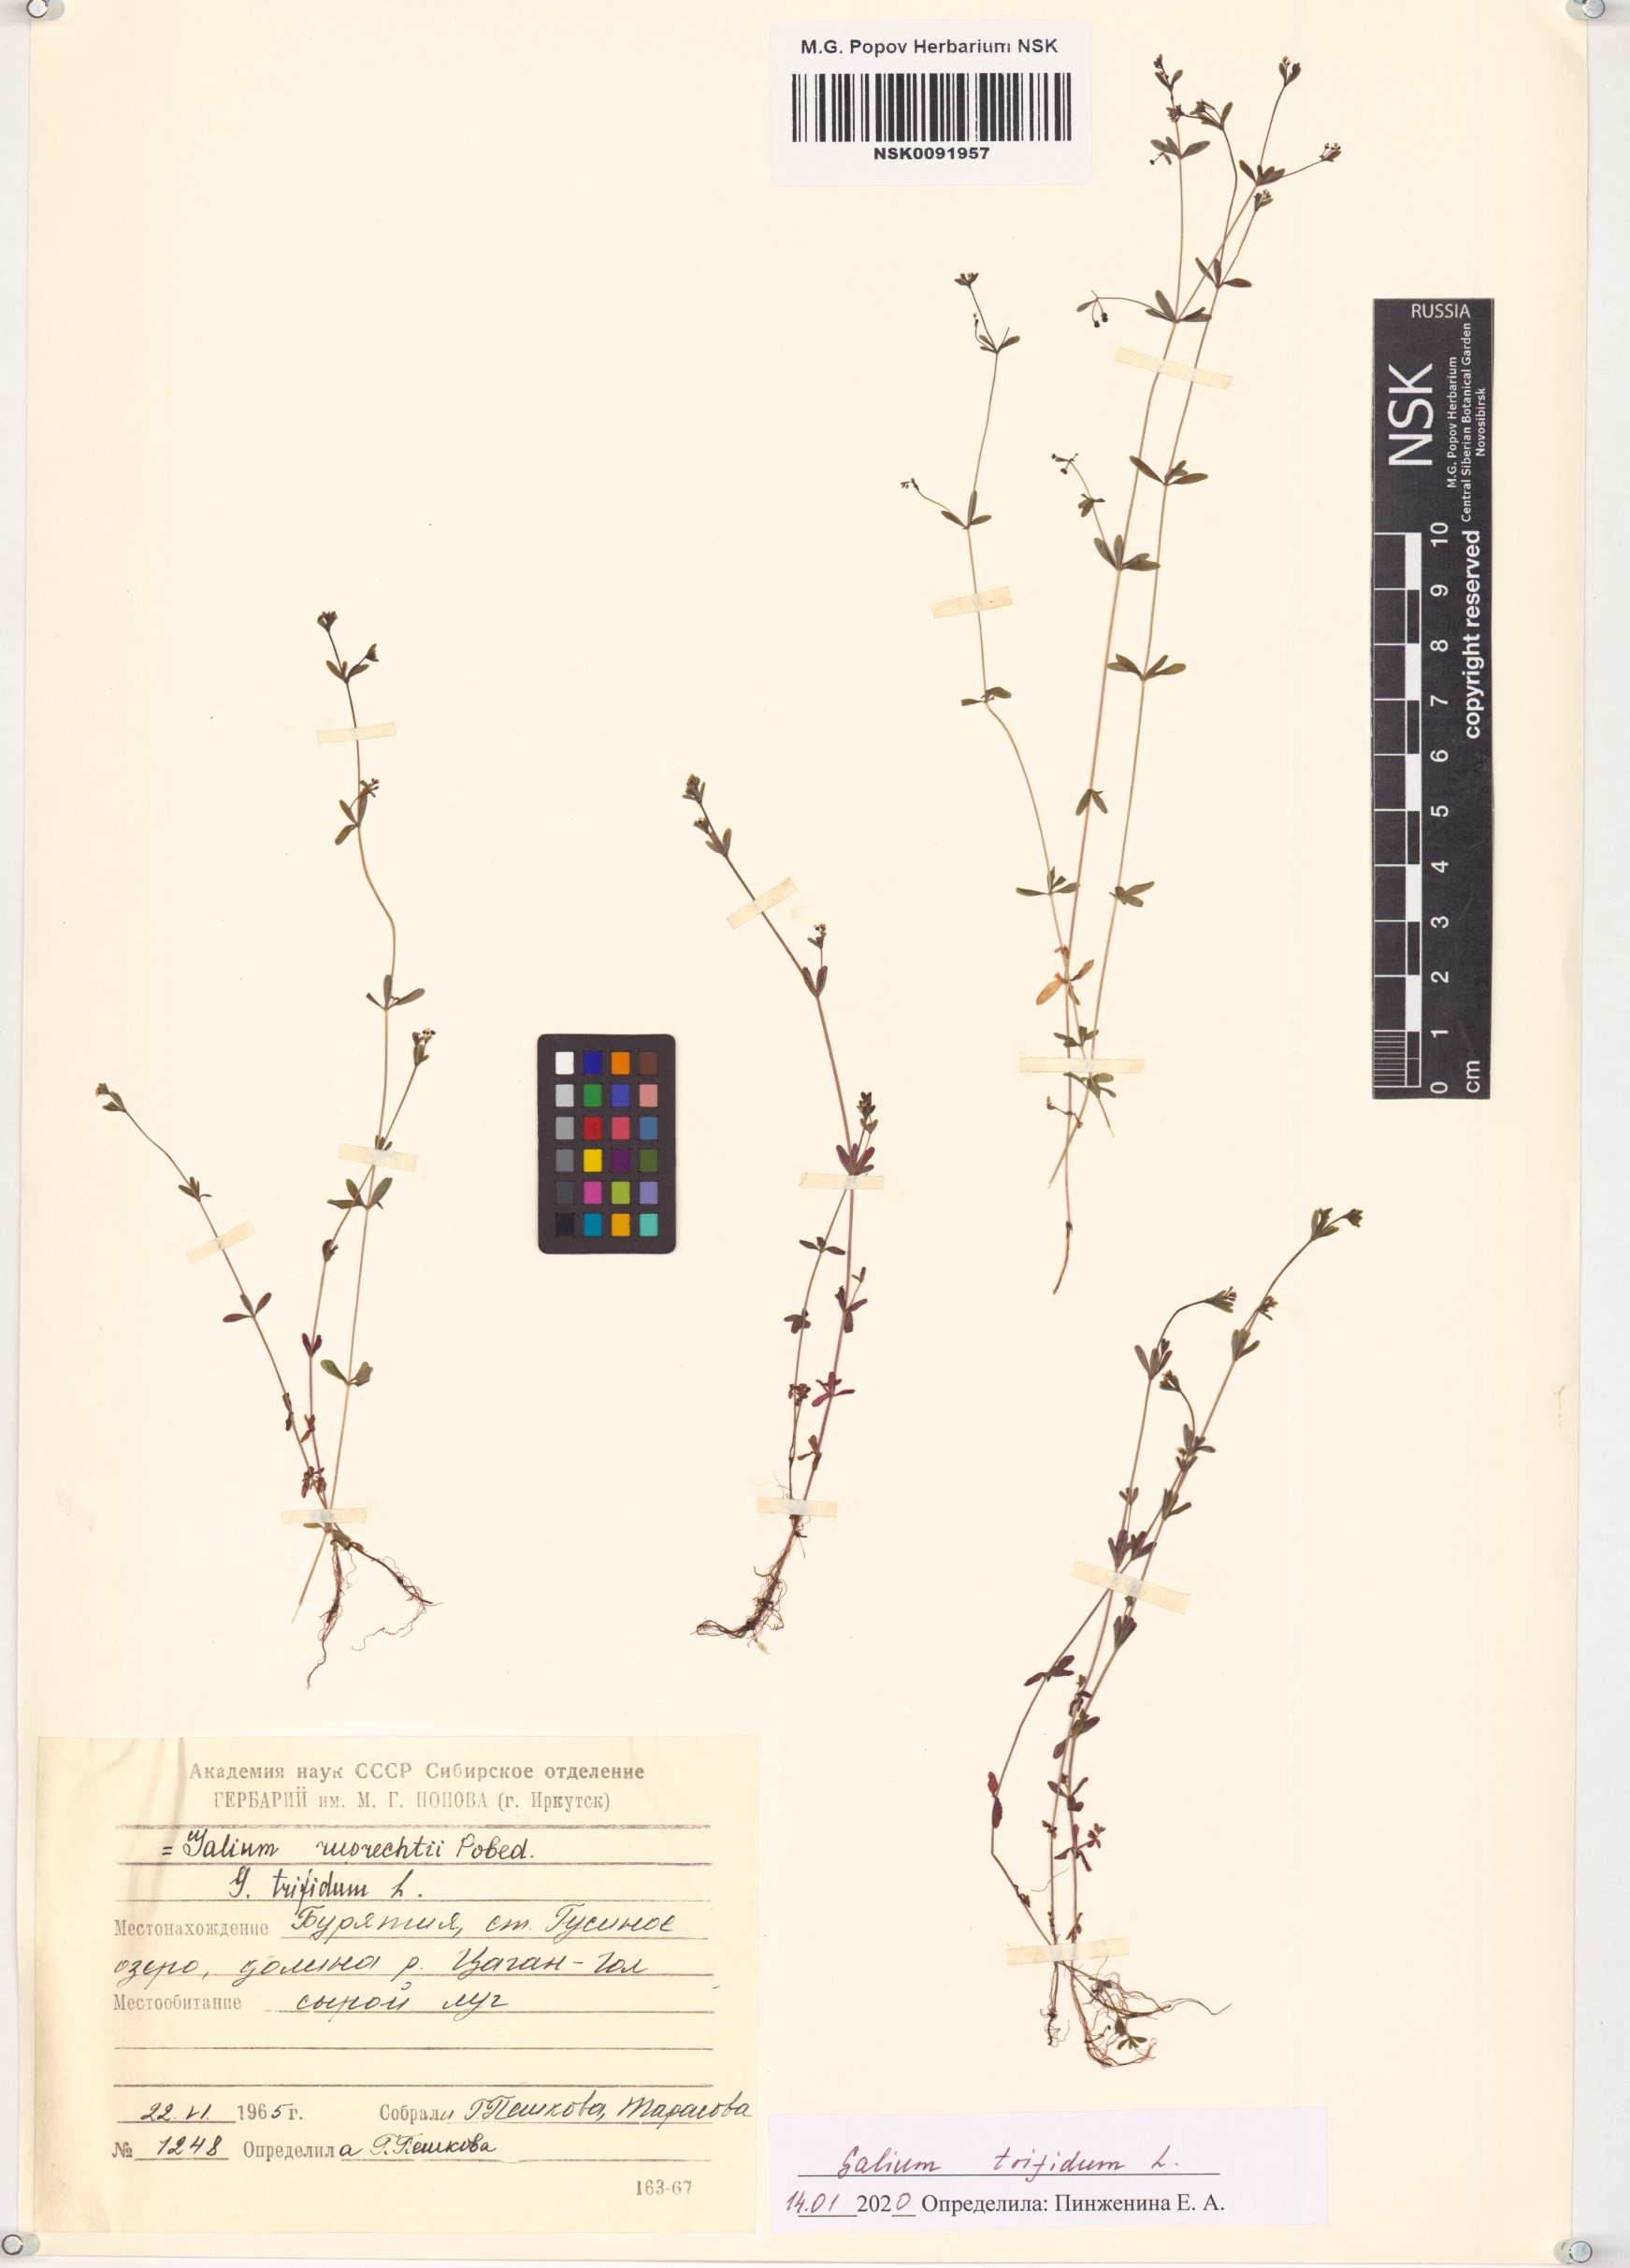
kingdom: Plantae
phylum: Tracheophyta
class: Magnoliopsida
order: Gentianales
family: Rubiaceae
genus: Galium
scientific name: Galium trifidum
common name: Small bedstraw
